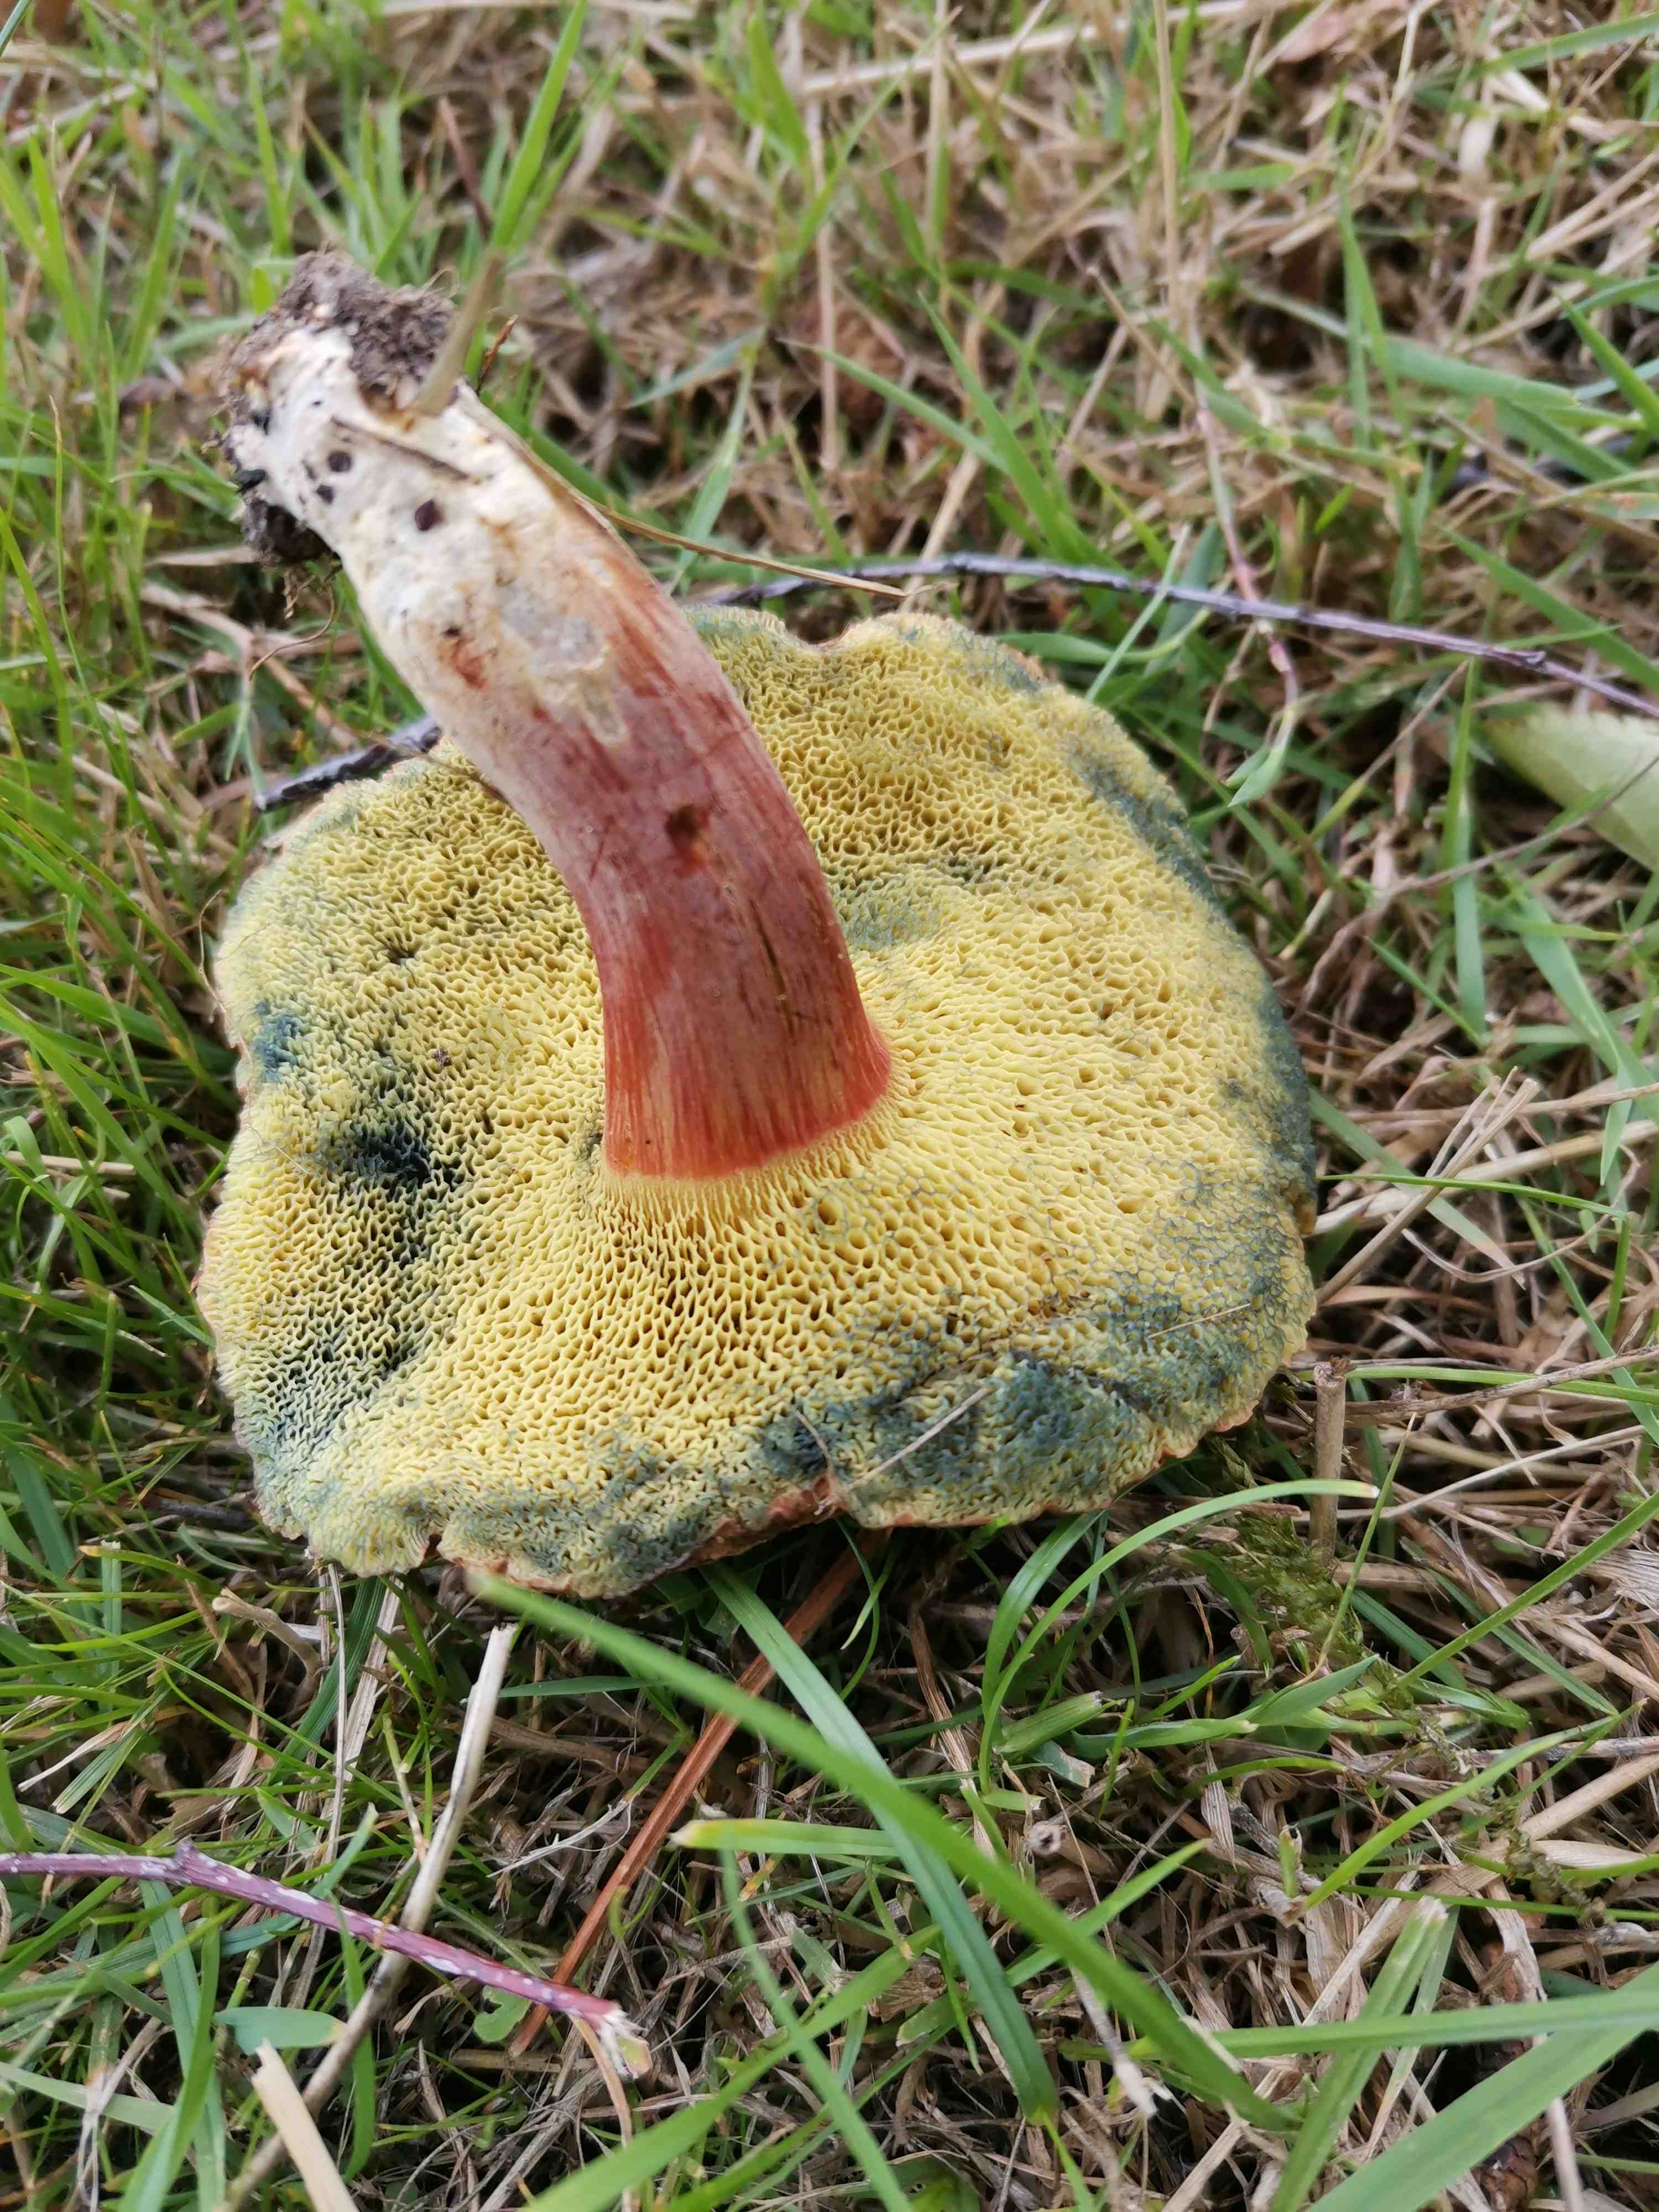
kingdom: Fungi
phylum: Basidiomycota
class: Agaricomycetes
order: Boletales
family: Boletaceae
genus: Hortiboletus
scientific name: Hortiboletus
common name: dværgrørhat
